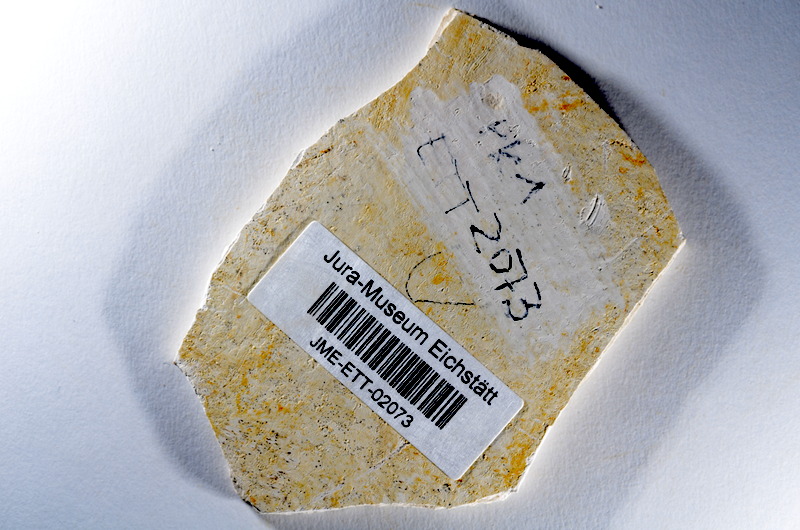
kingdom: Animalia
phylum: Chordata
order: Salmoniformes
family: Orthogonikleithridae
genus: Orthogonikleithrus
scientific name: Orthogonikleithrus hoelli
